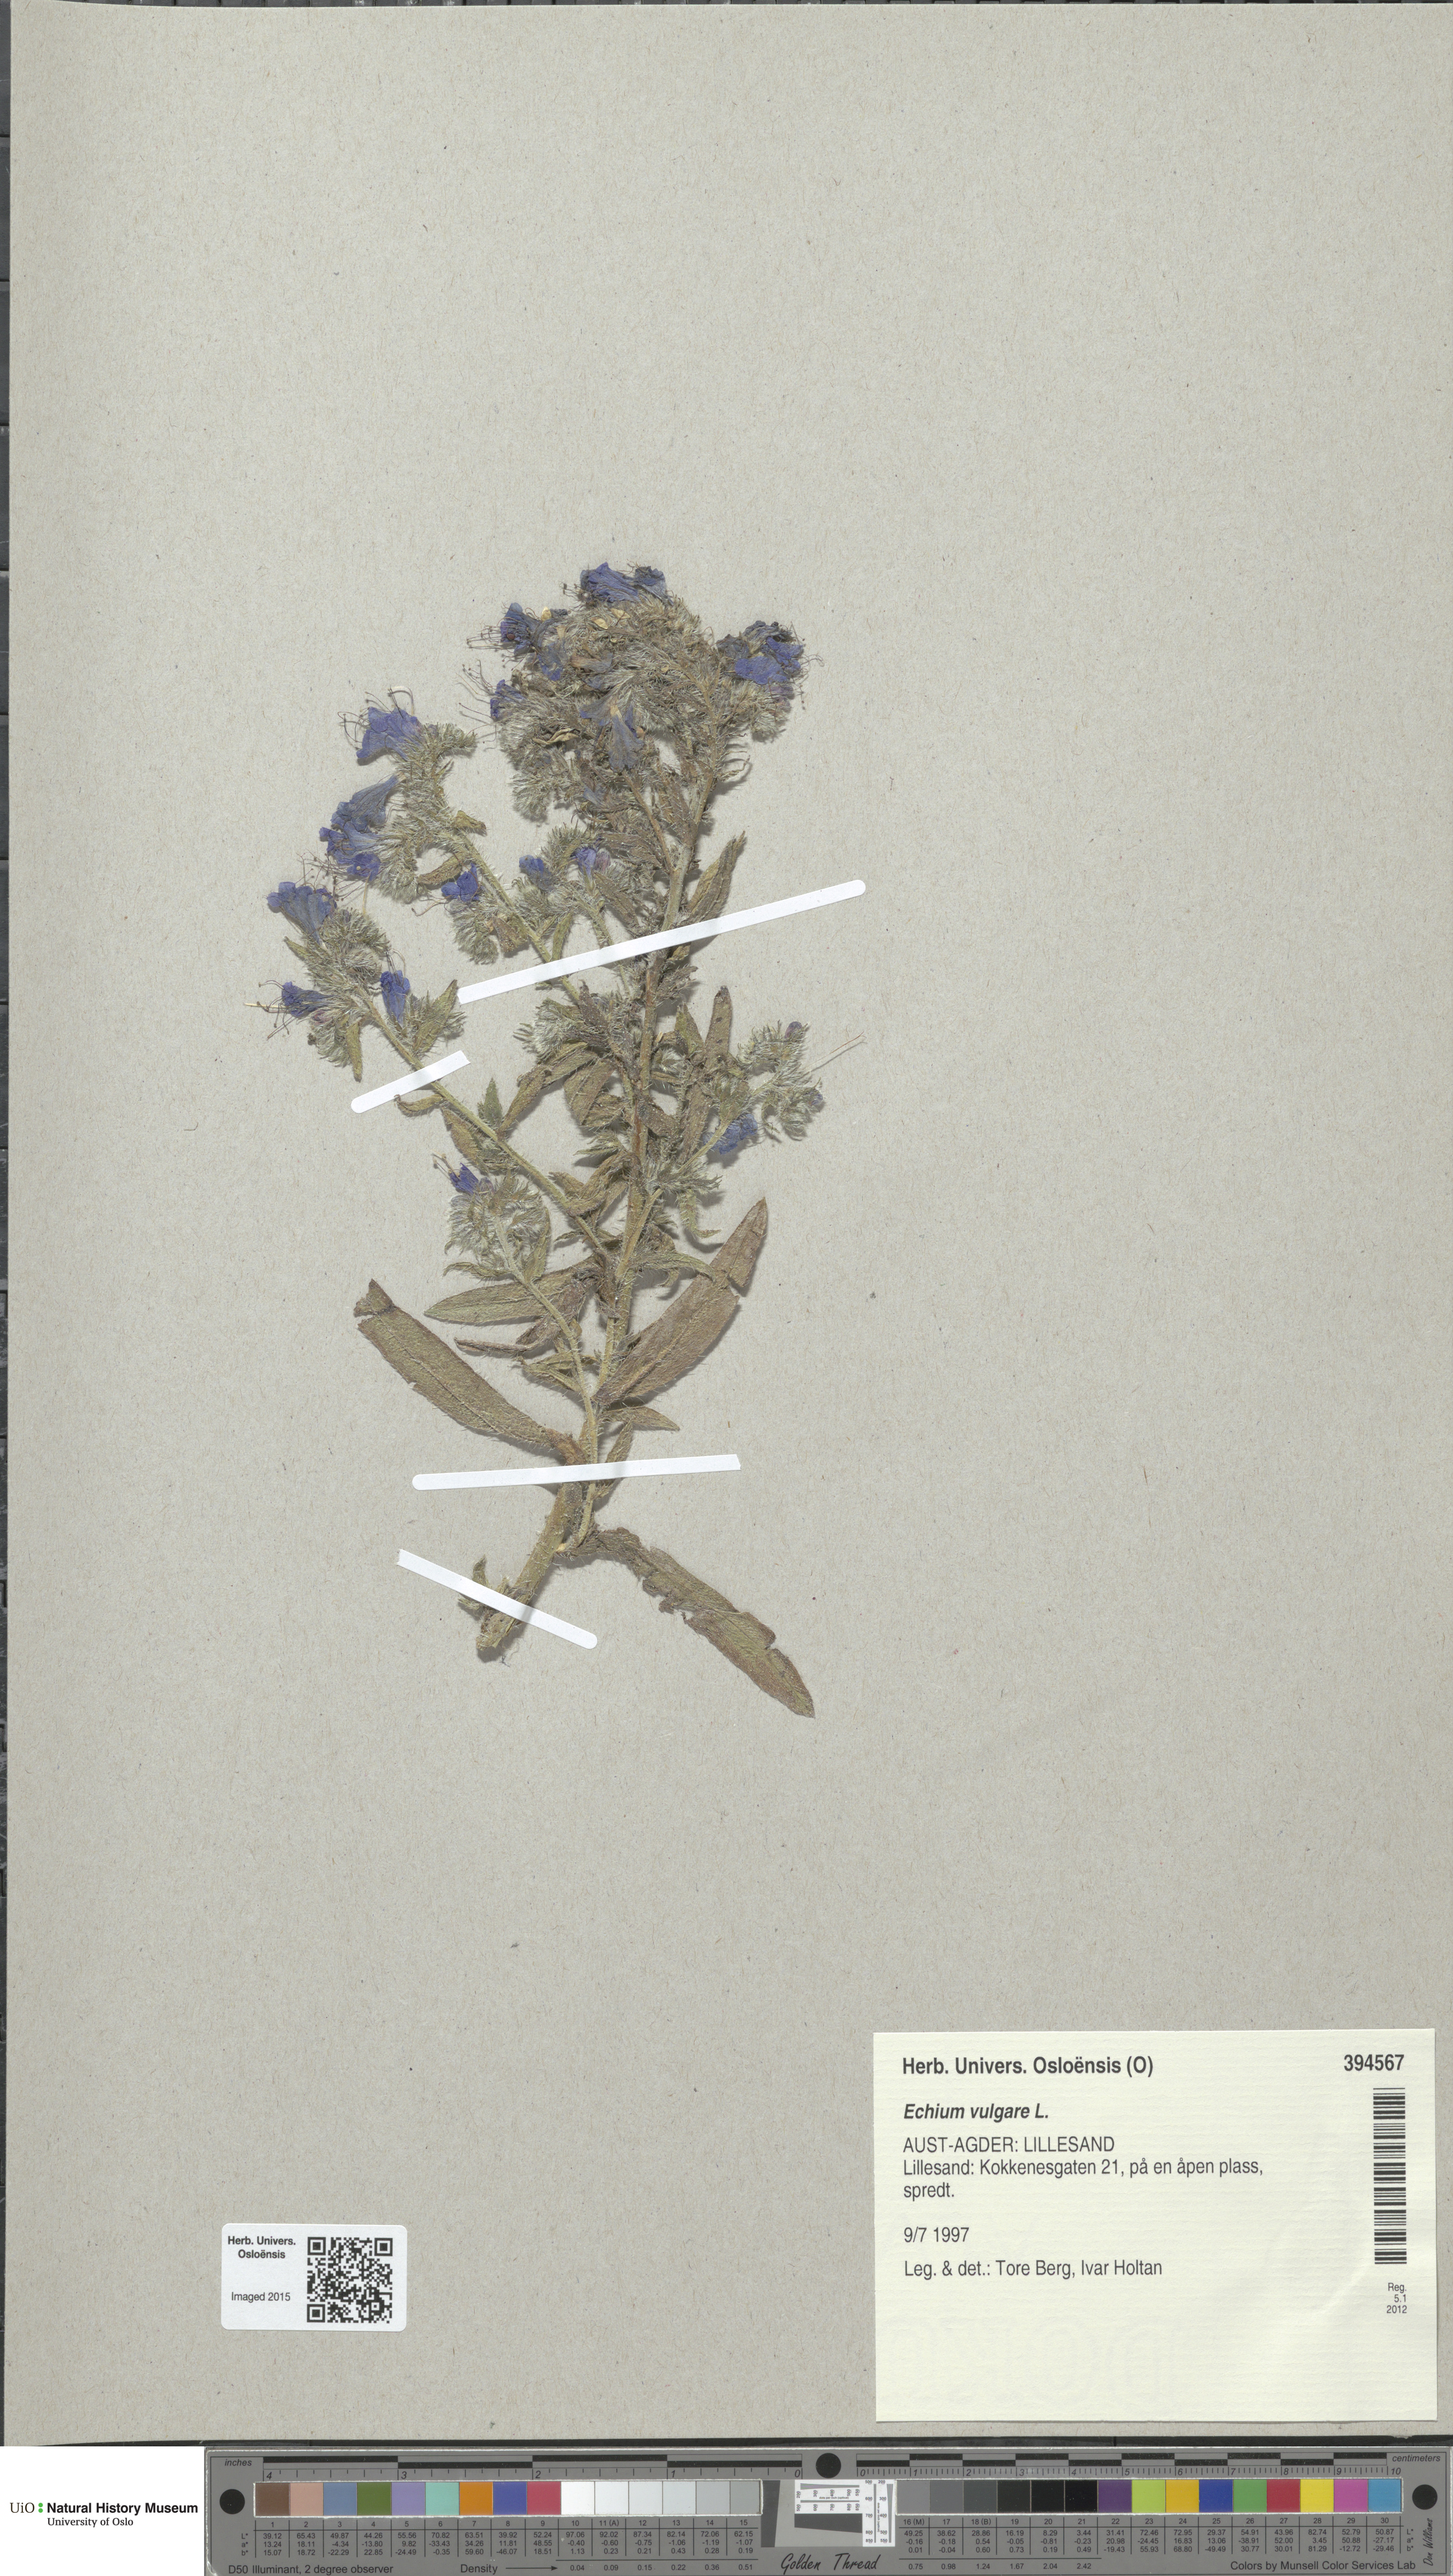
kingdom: Plantae
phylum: Tracheophyta
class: Magnoliopsida
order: Boraginales
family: Boraginaceae
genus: Echium
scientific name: Echium vulgare
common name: Common viper's bugloss
